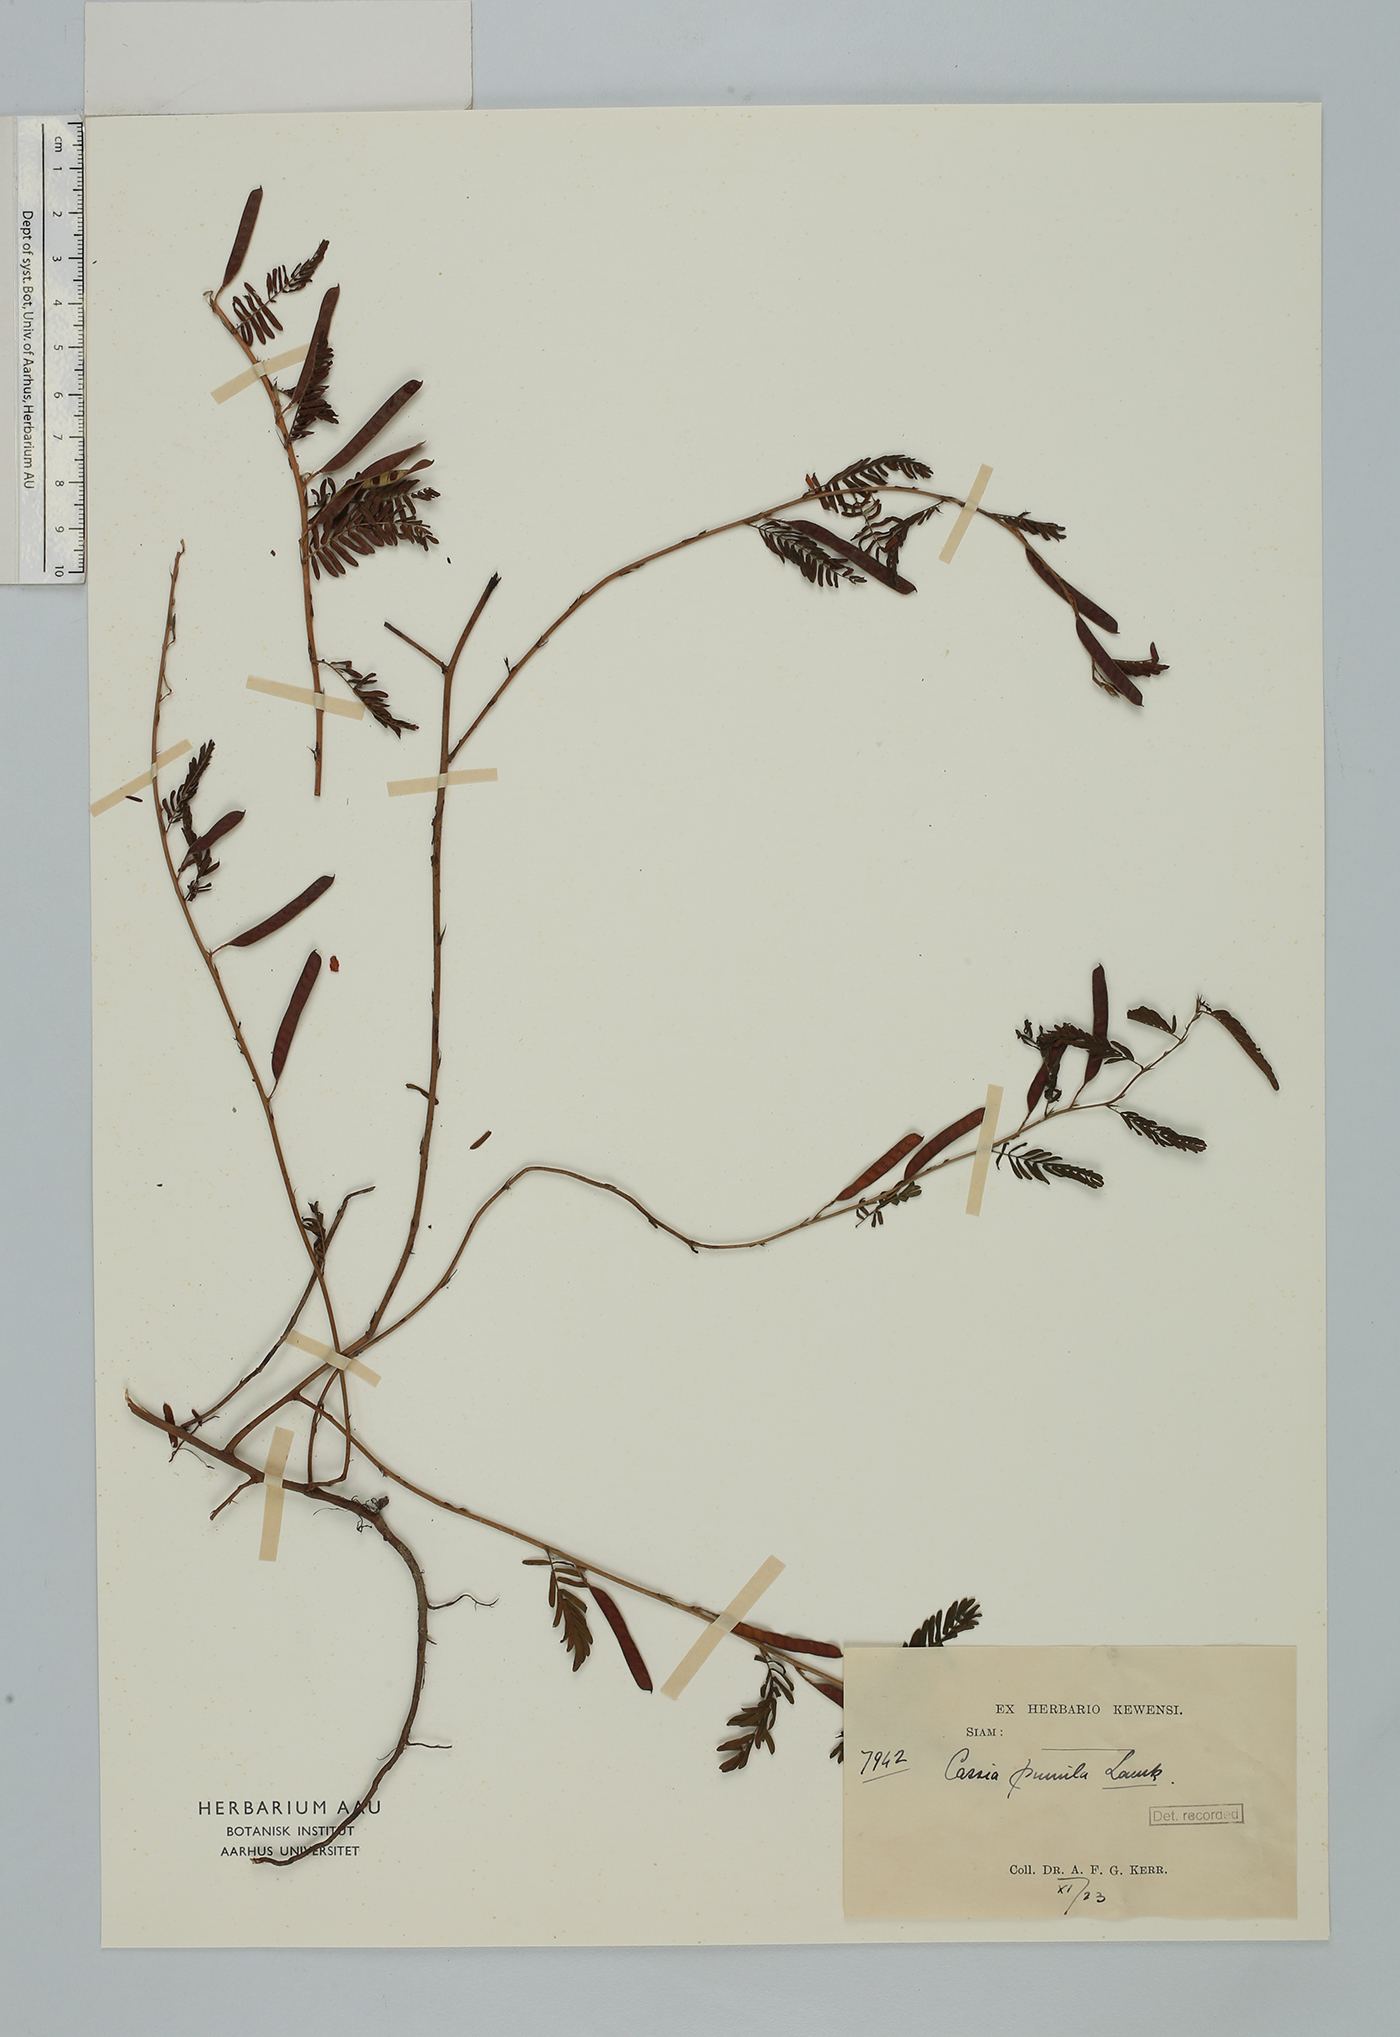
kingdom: Plantae
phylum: Tracheophyta
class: Magnoliopsida
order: Fabales
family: Fabaceae
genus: Chamaecrista
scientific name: Chamaecrista pumila
